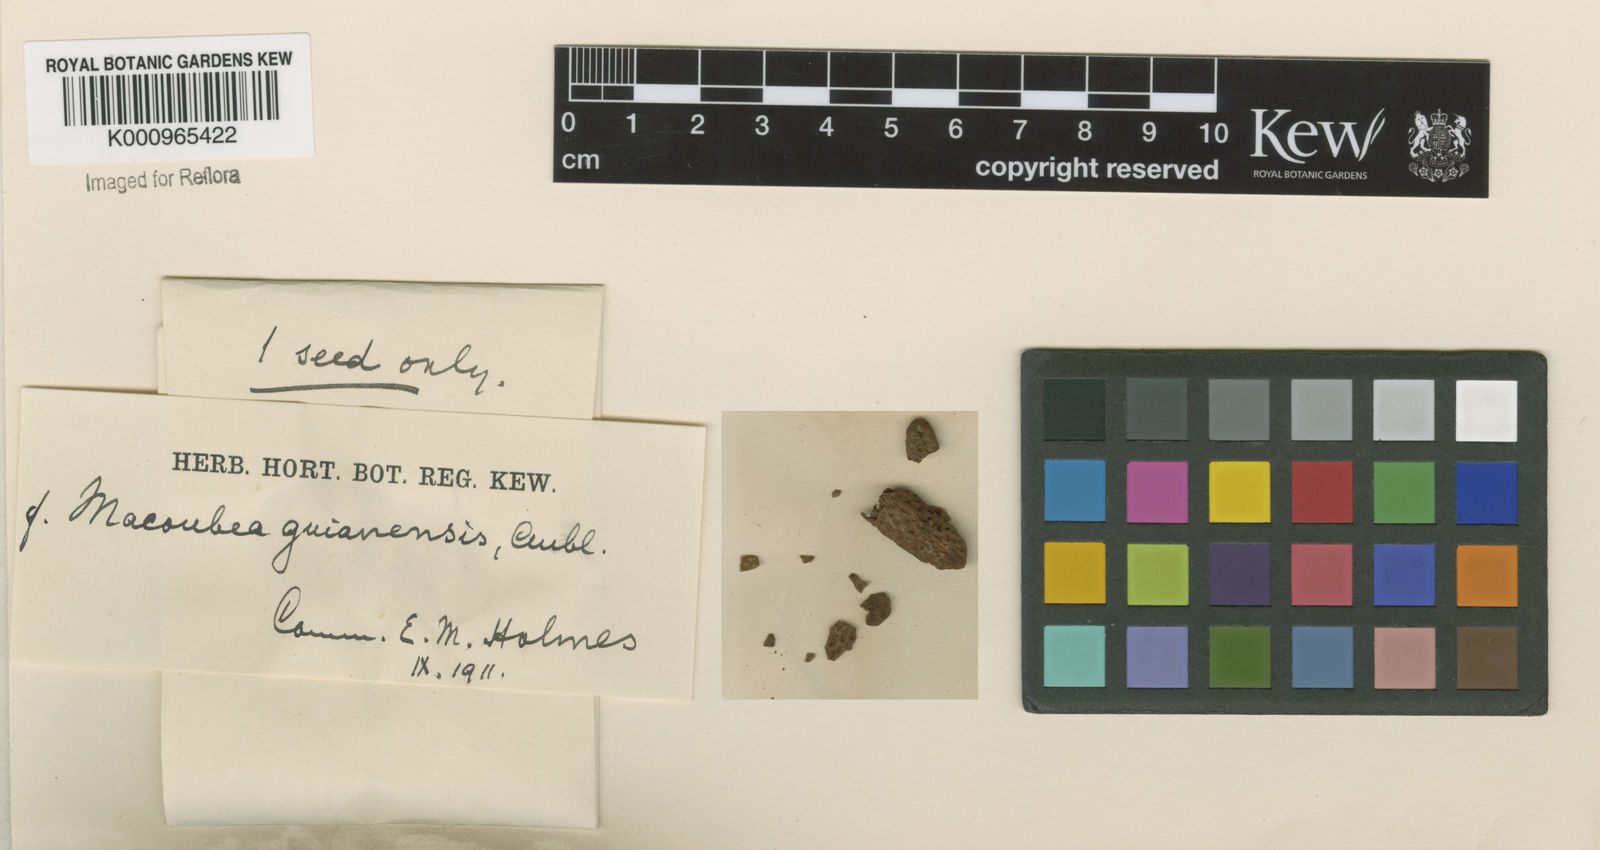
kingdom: Plantae
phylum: Tracheophyta
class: Magnoliopsida
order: Gentianales
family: Apocynaceae
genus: Macoubea
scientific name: Macoubea guianensis
